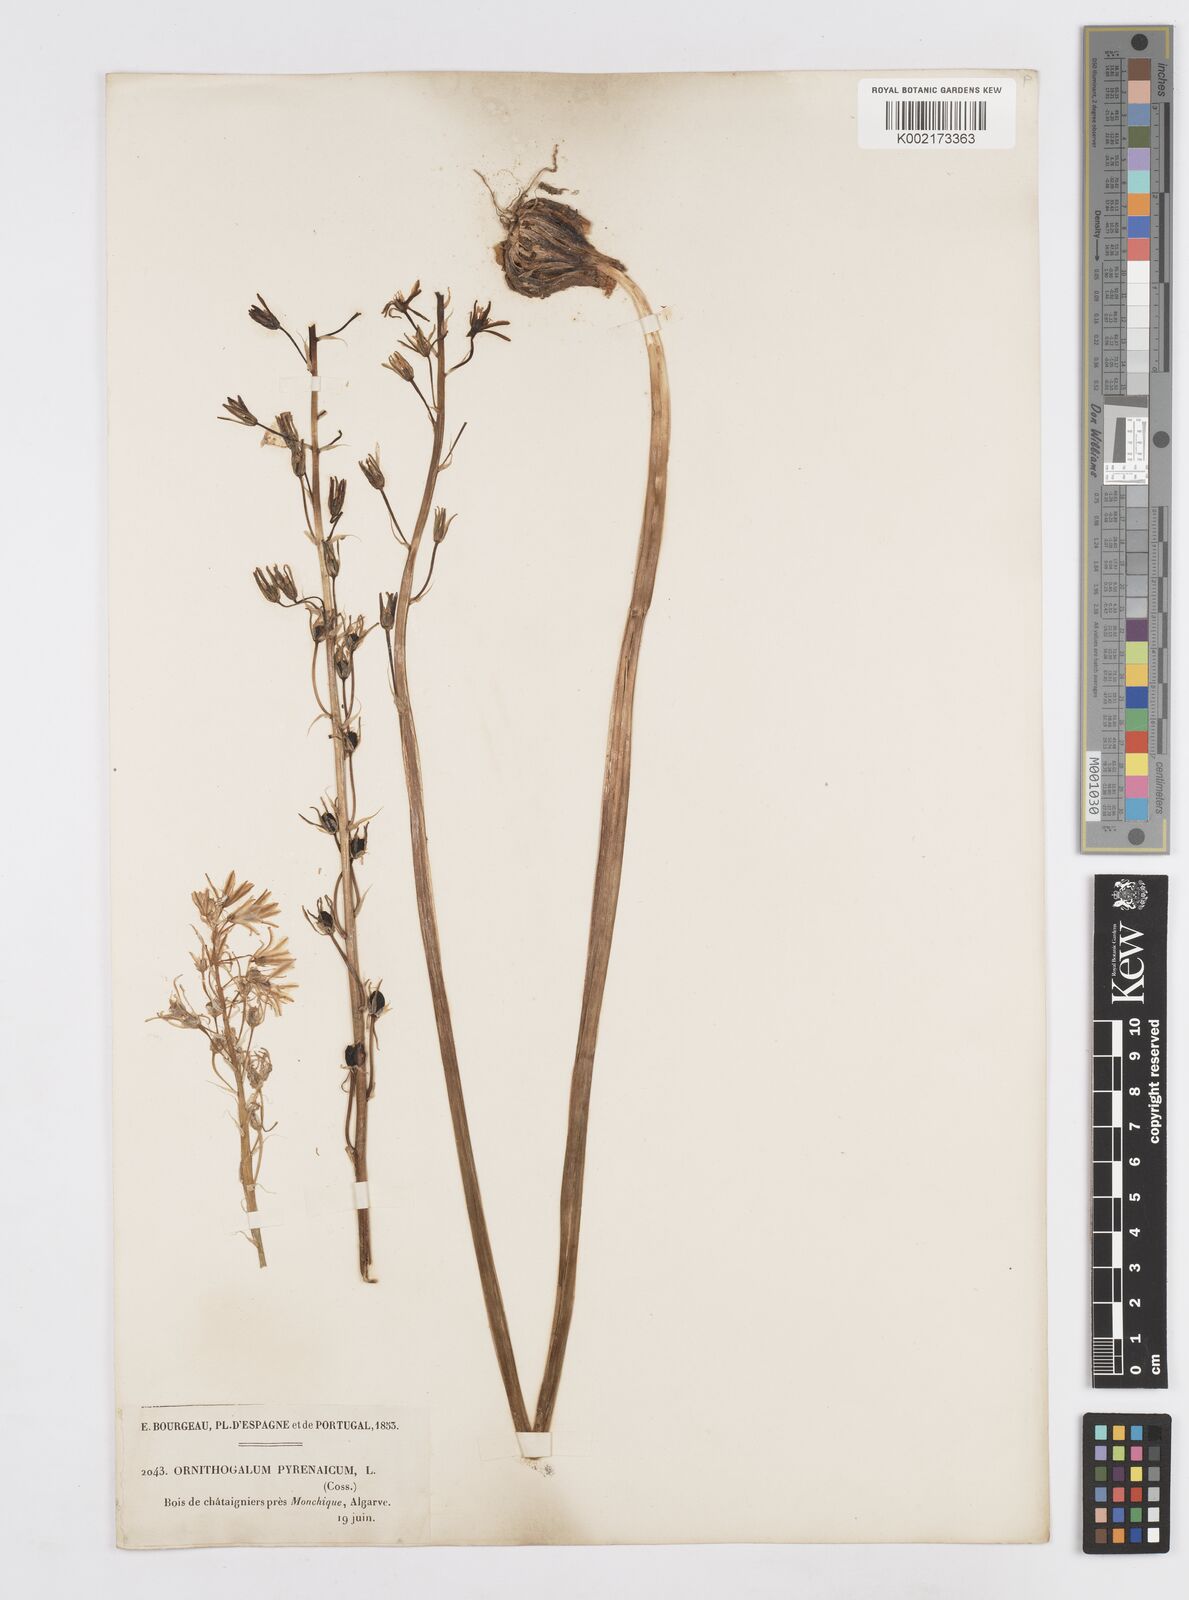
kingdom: Plantae
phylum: Tracheophyta
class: Liliopsida
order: Asparagales
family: Asparagaceae
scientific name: Asparagaceae
